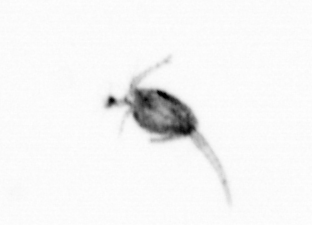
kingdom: Animalia
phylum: Arthropoda
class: Copepoda
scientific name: Copepoda
